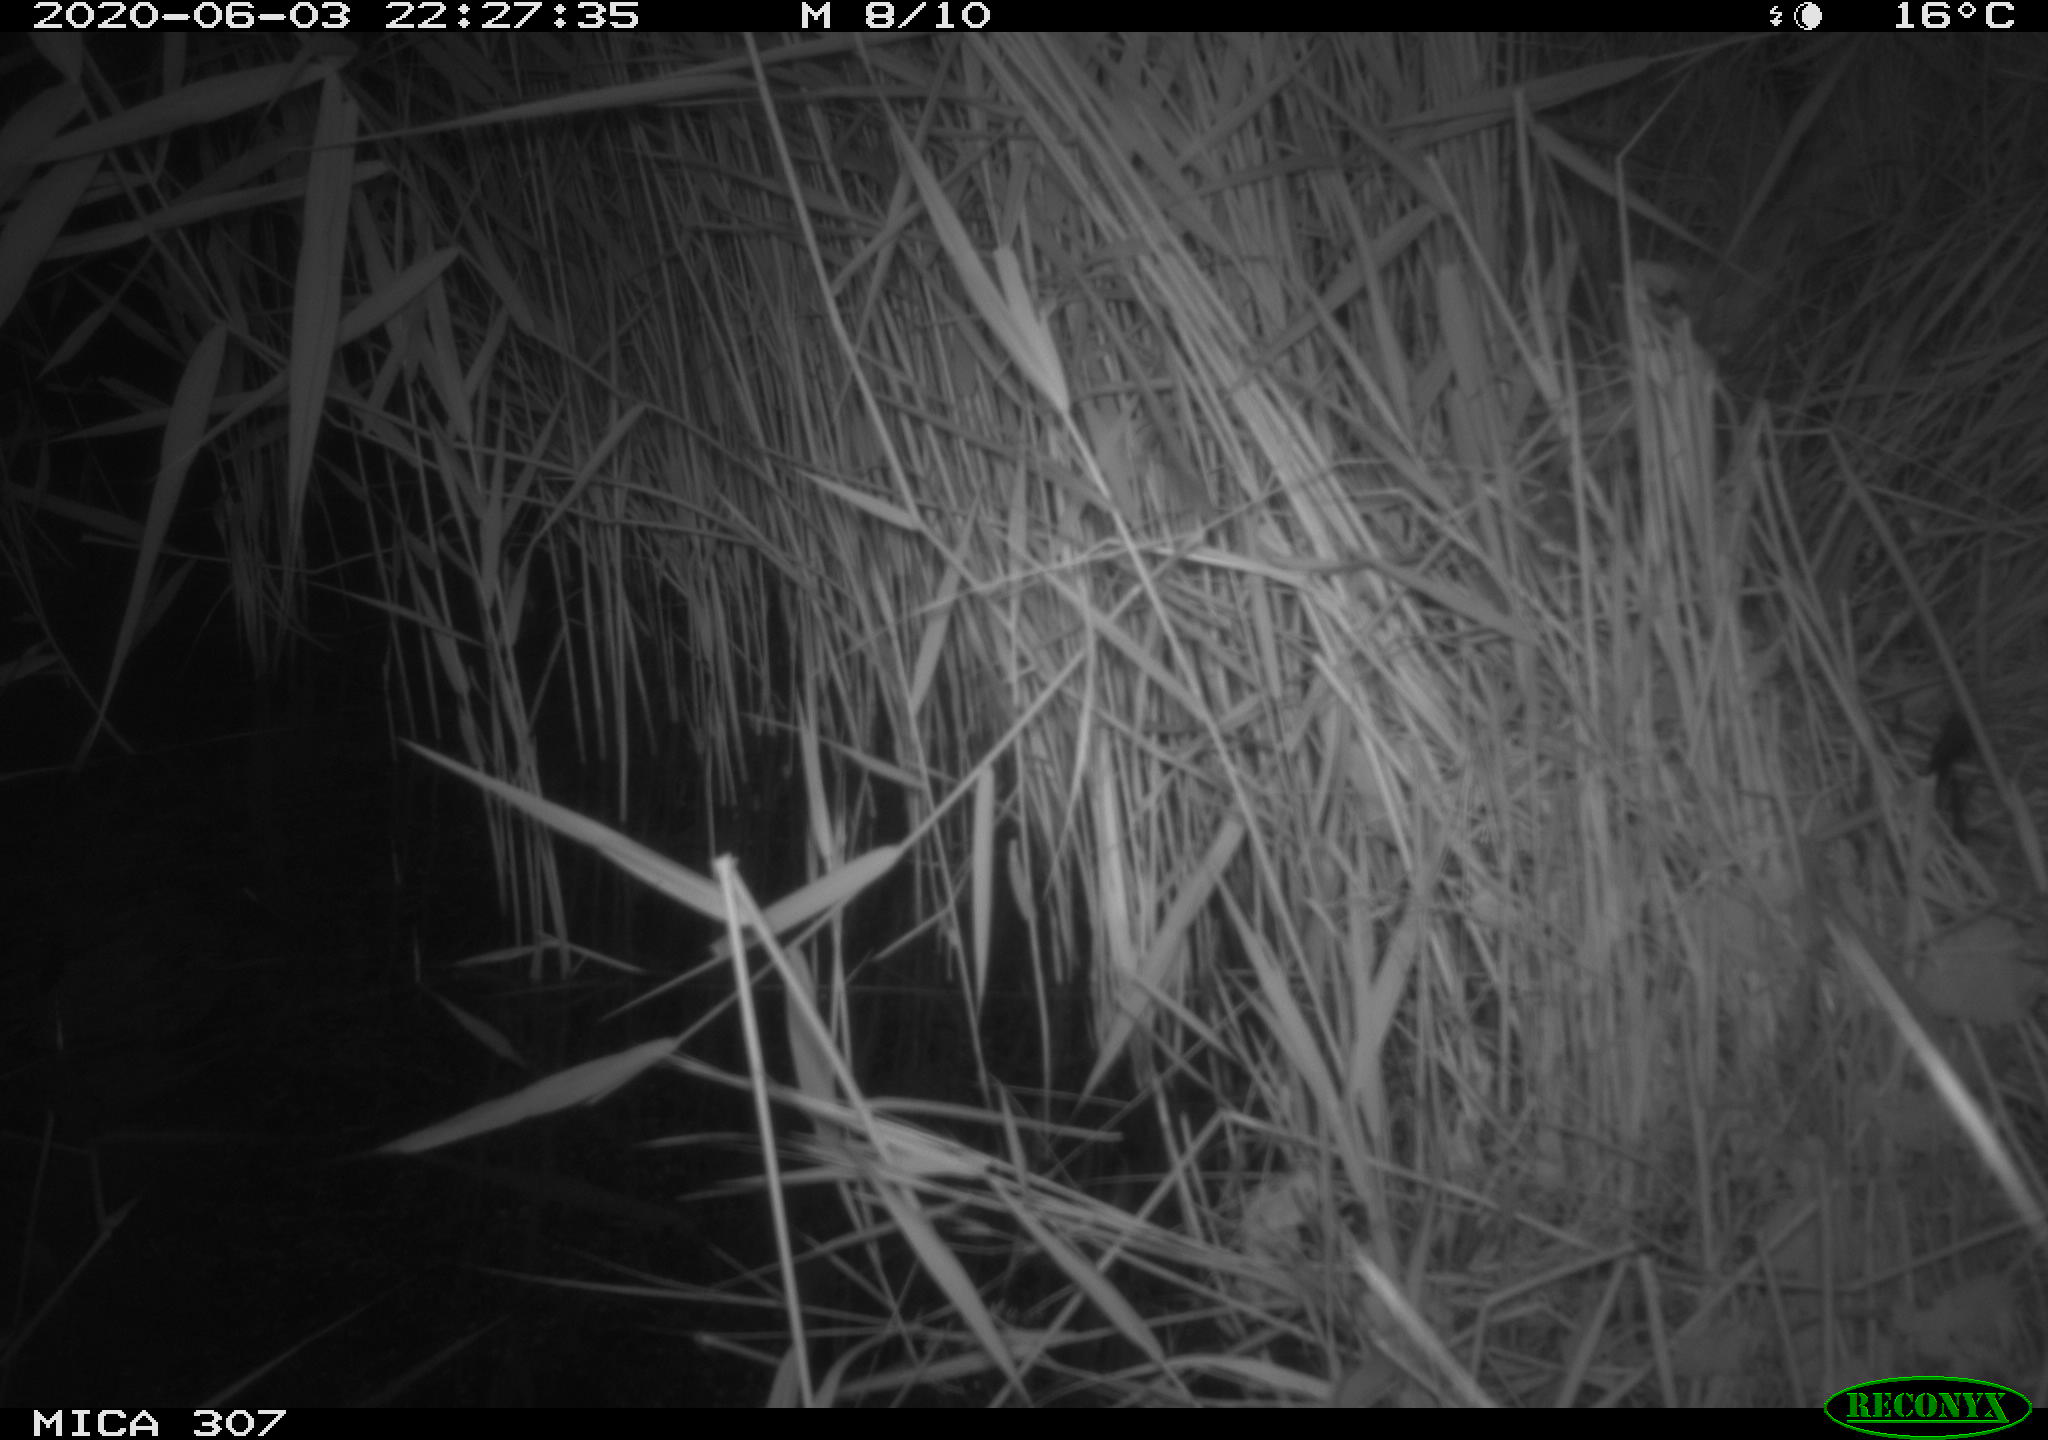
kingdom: Animalia
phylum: Chordata
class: Aves
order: Anseriformes
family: Anatidae
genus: Anas
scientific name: Anas platyrhynchos
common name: Mallard
